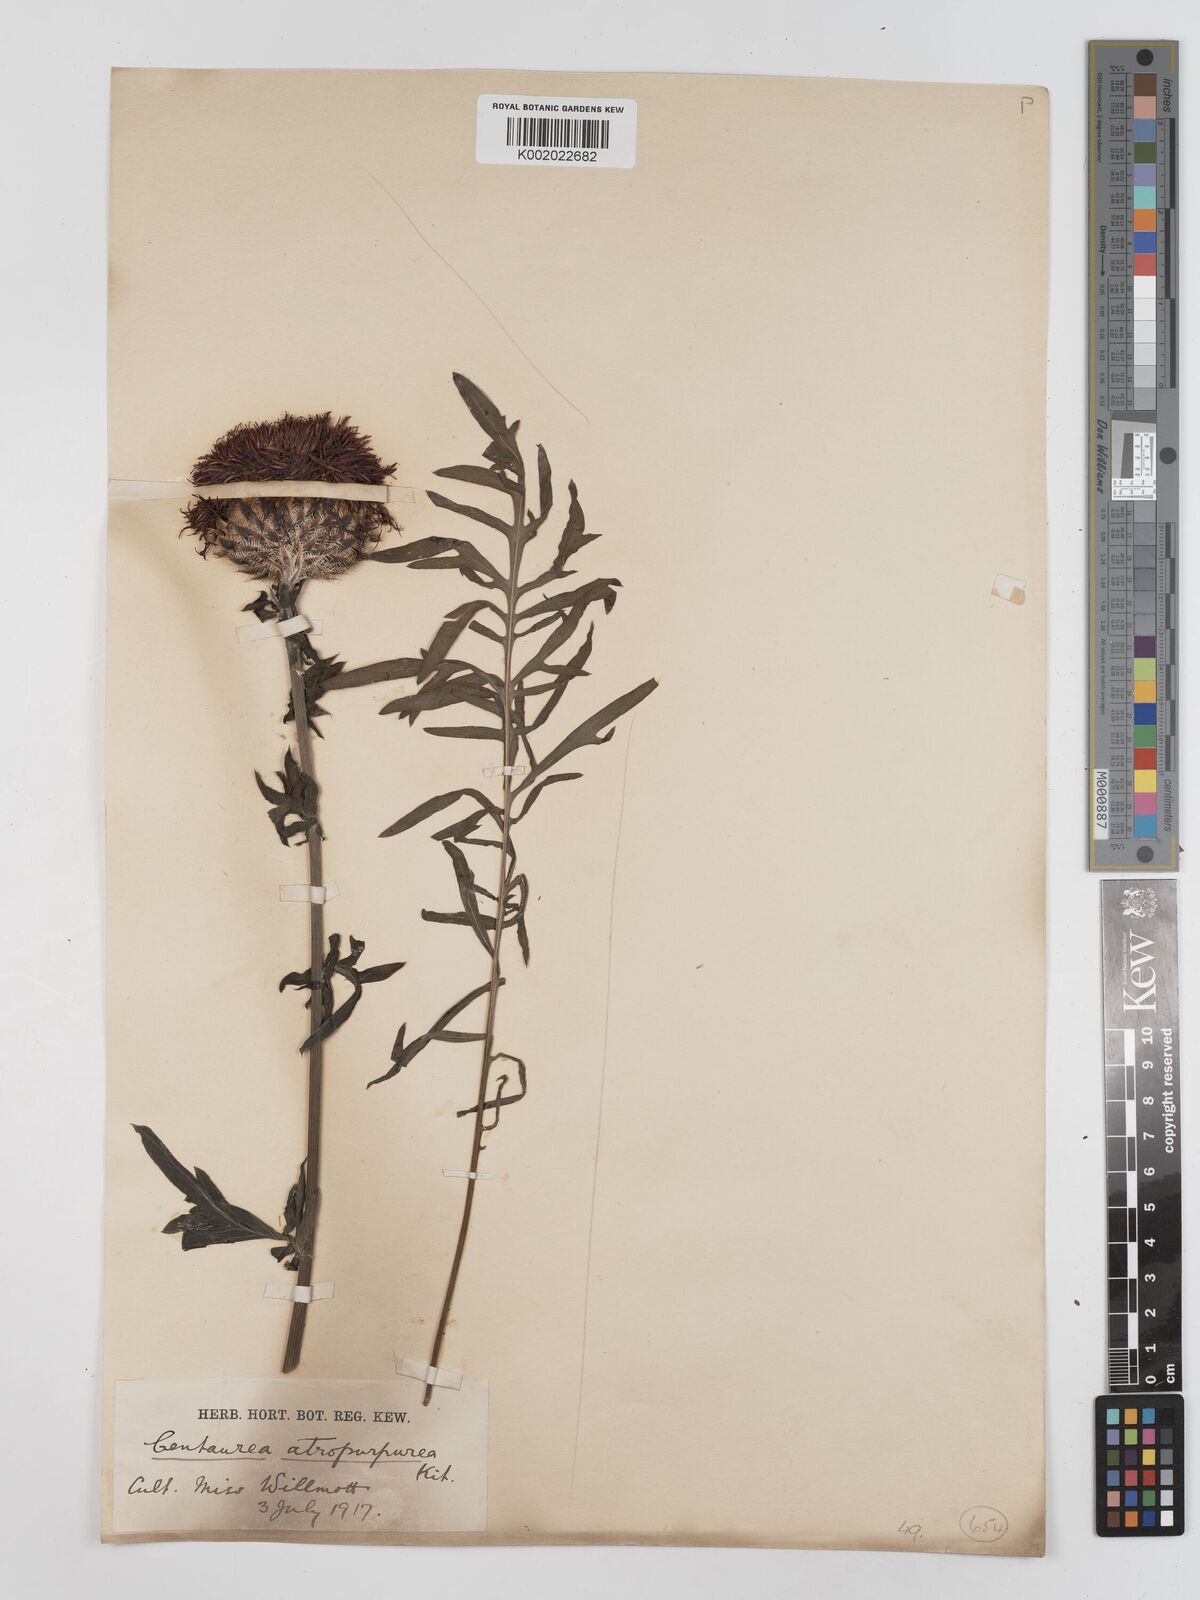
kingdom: Plantae
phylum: Tracheophyta
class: Magnoliopsida
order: Asterales
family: Asteraceae
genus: Centaurea
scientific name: Centaurea calocephala
